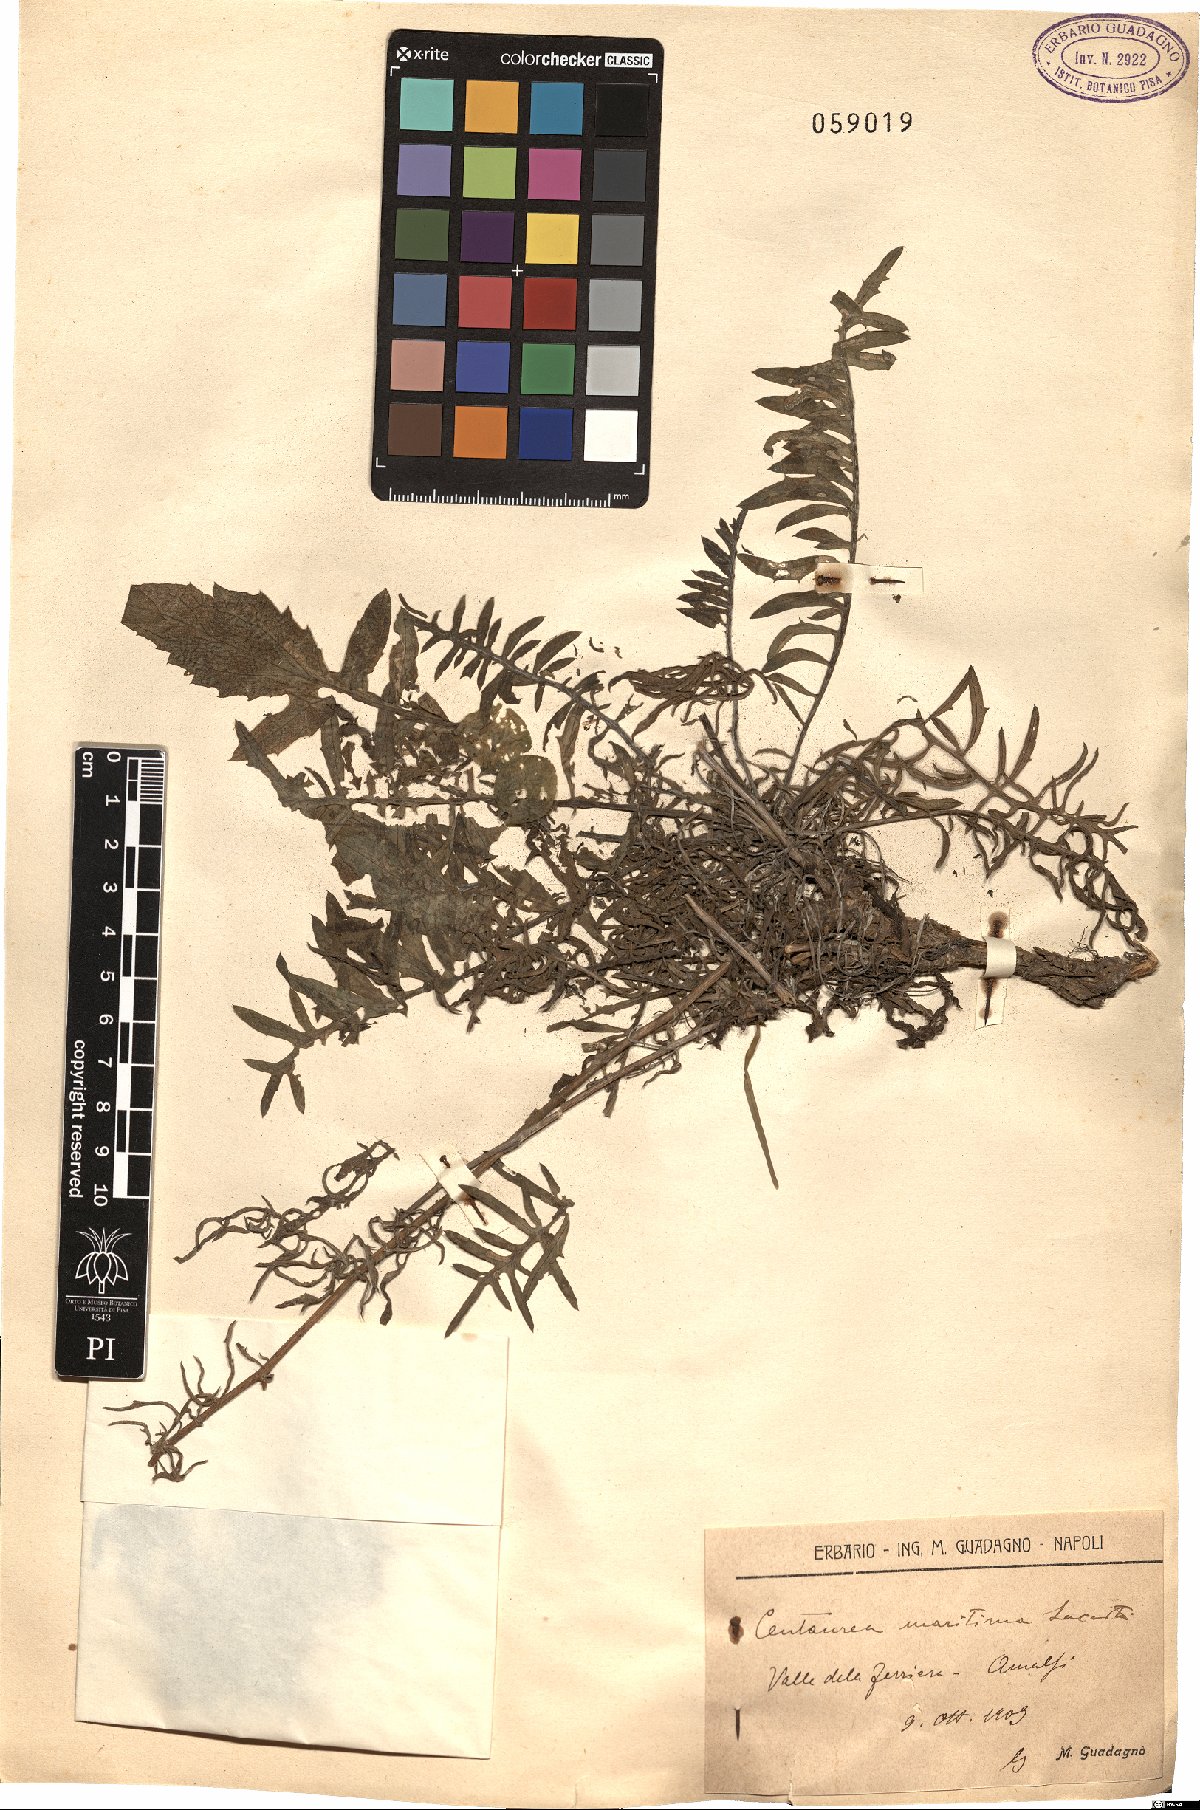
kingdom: Plantae
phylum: Tracheophyta
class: Magnoliopsida
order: Asterales
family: Asteraceae
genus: Centaurea
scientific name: Centaurea maritima
